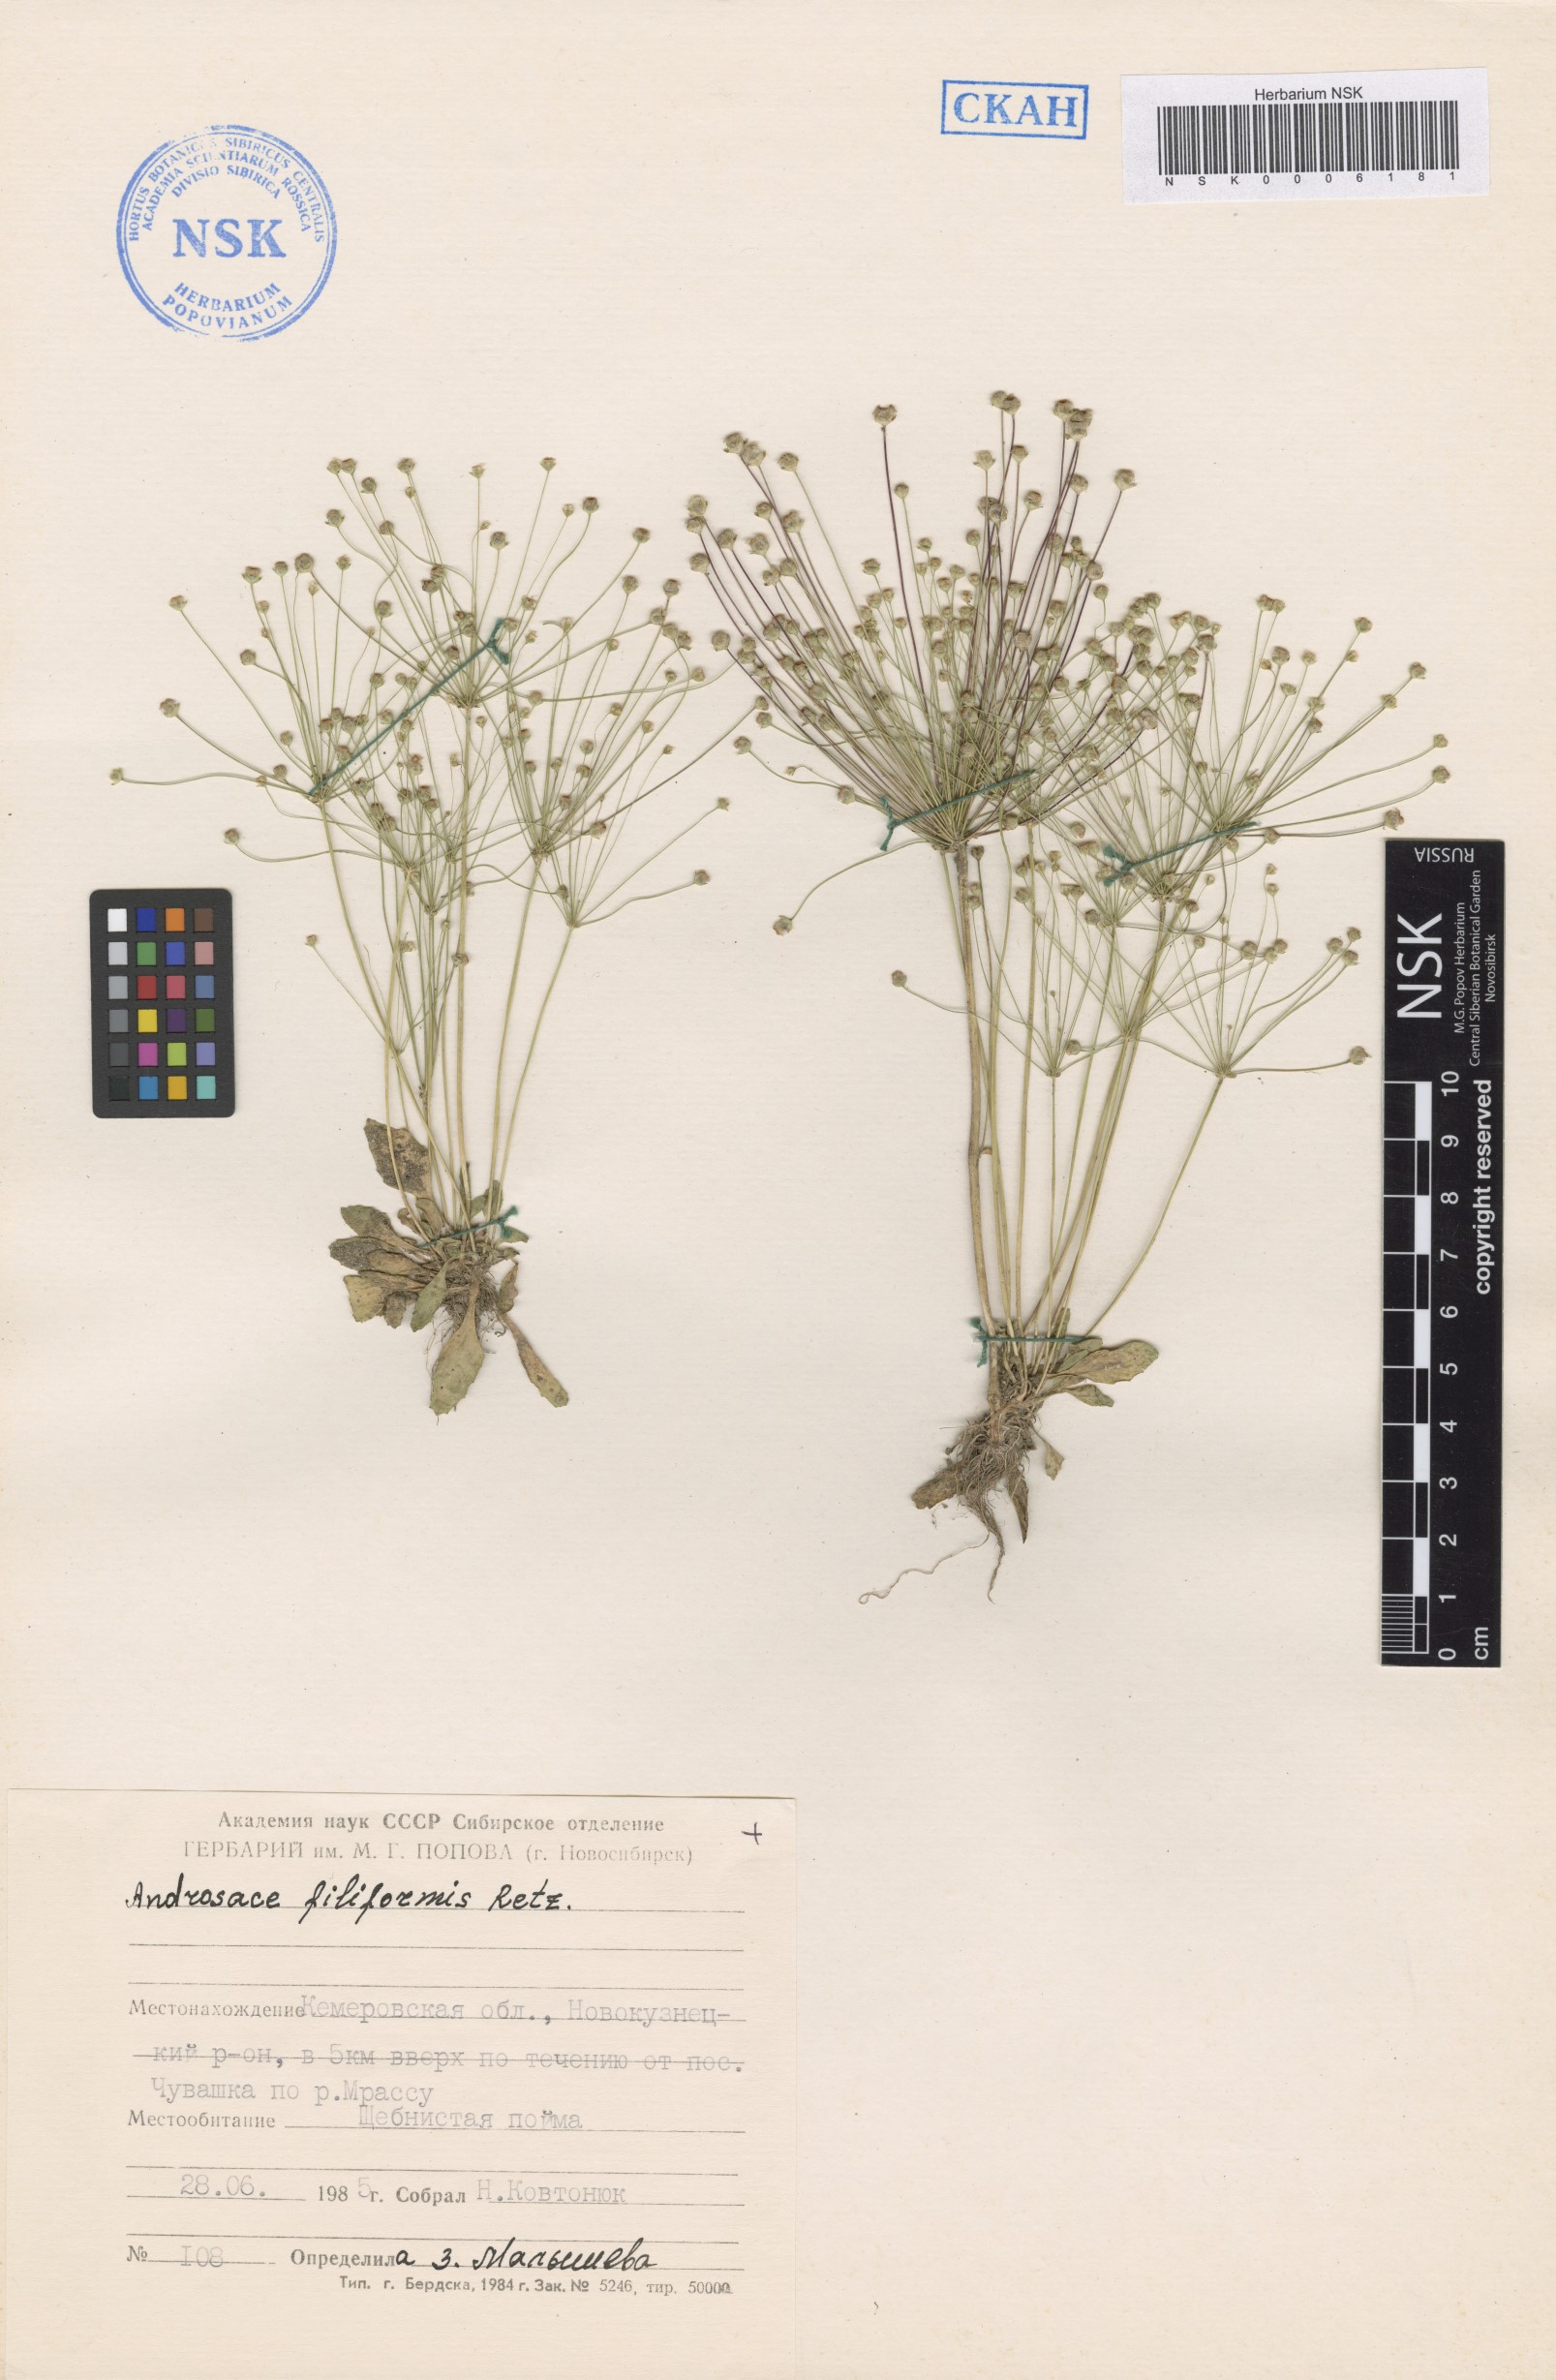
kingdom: Plantae
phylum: Tracheophyta
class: Magnoliopsida
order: Ericales
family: Primulaceae
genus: Androsace
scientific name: Androsace filiformis
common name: Filiform rock jasmine
